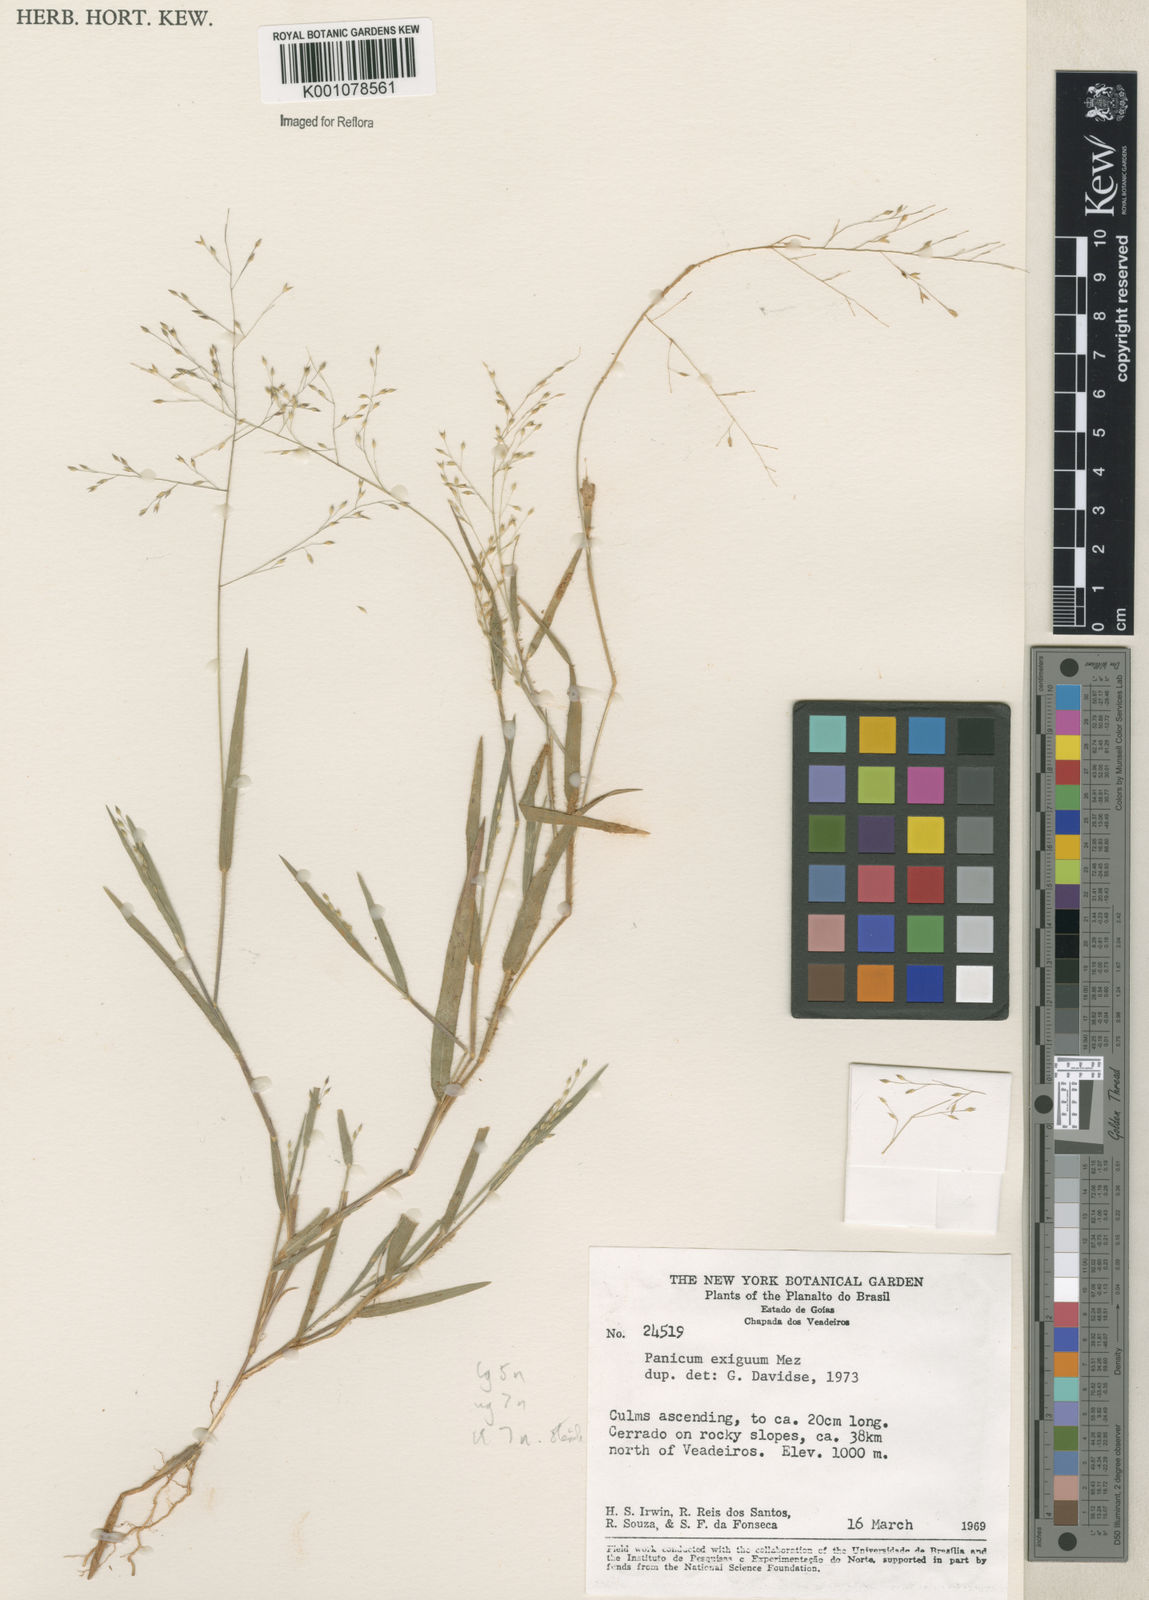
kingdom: Plantae
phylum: Tracheophyta
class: Liliopsida
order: Poales
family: Poaceae
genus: Panicum
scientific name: Panicum exiguum
